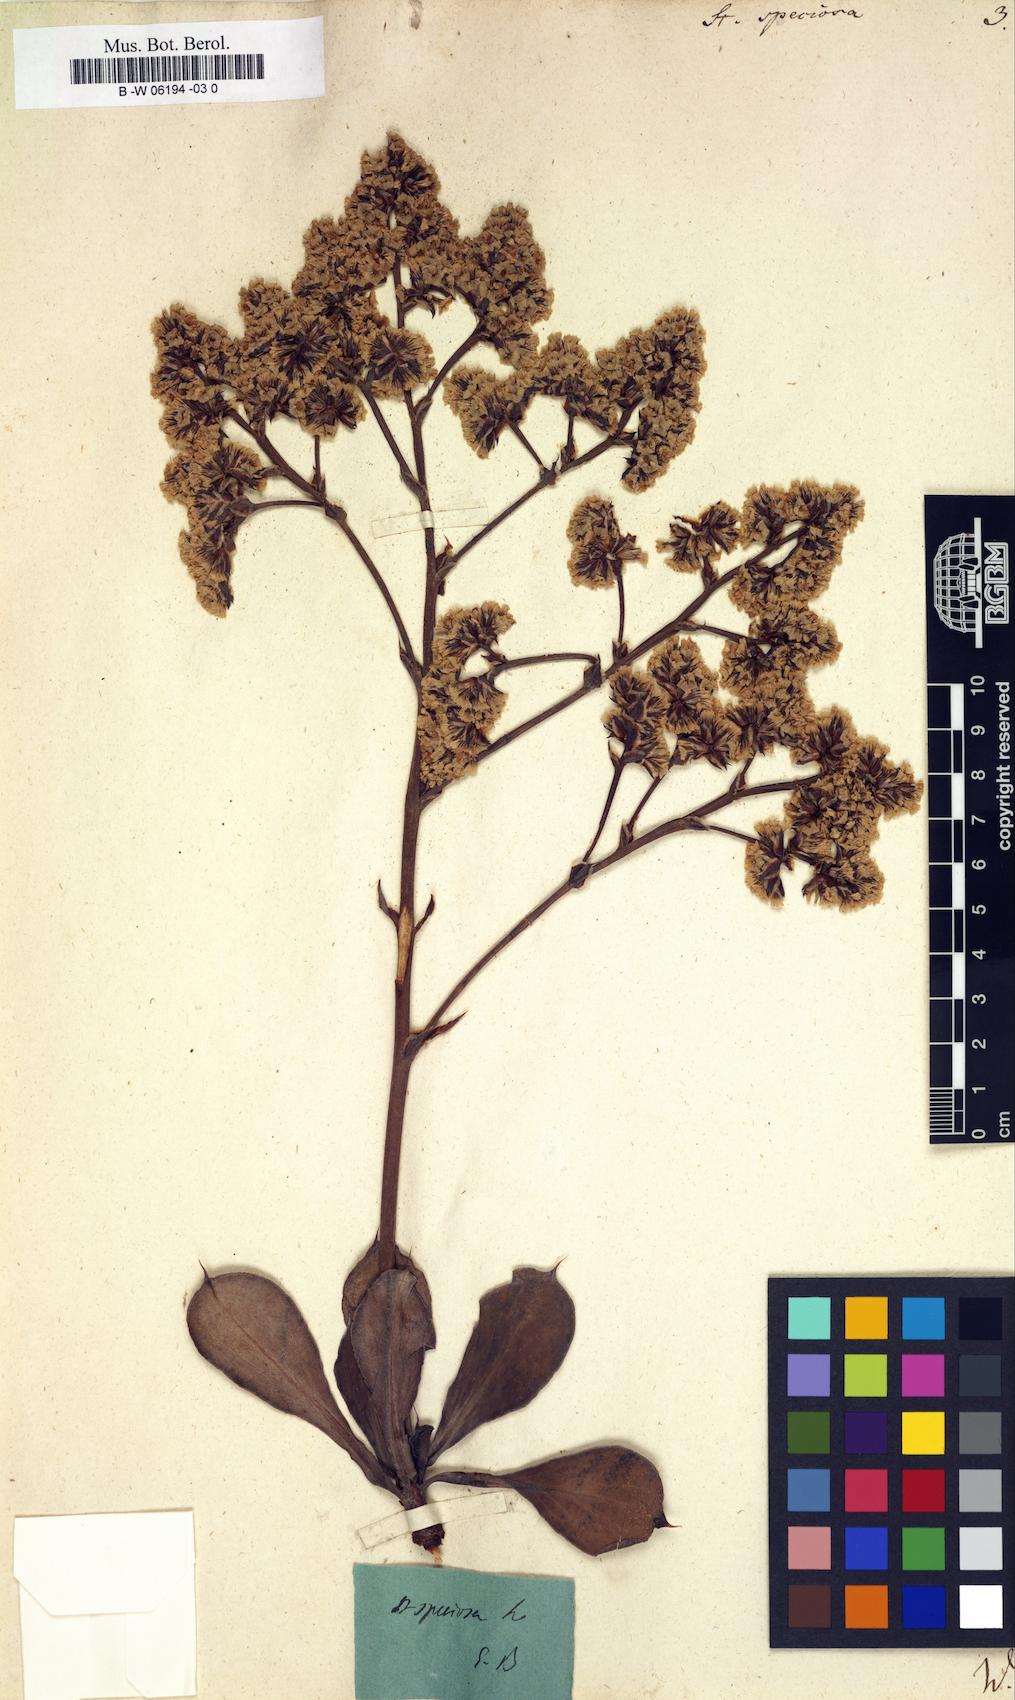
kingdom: Plantae
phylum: Tracheophyta
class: Magnoliopsida
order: Caryophyllales
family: Plumbaginaceae
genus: Goniolimon
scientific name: Goniolimon
